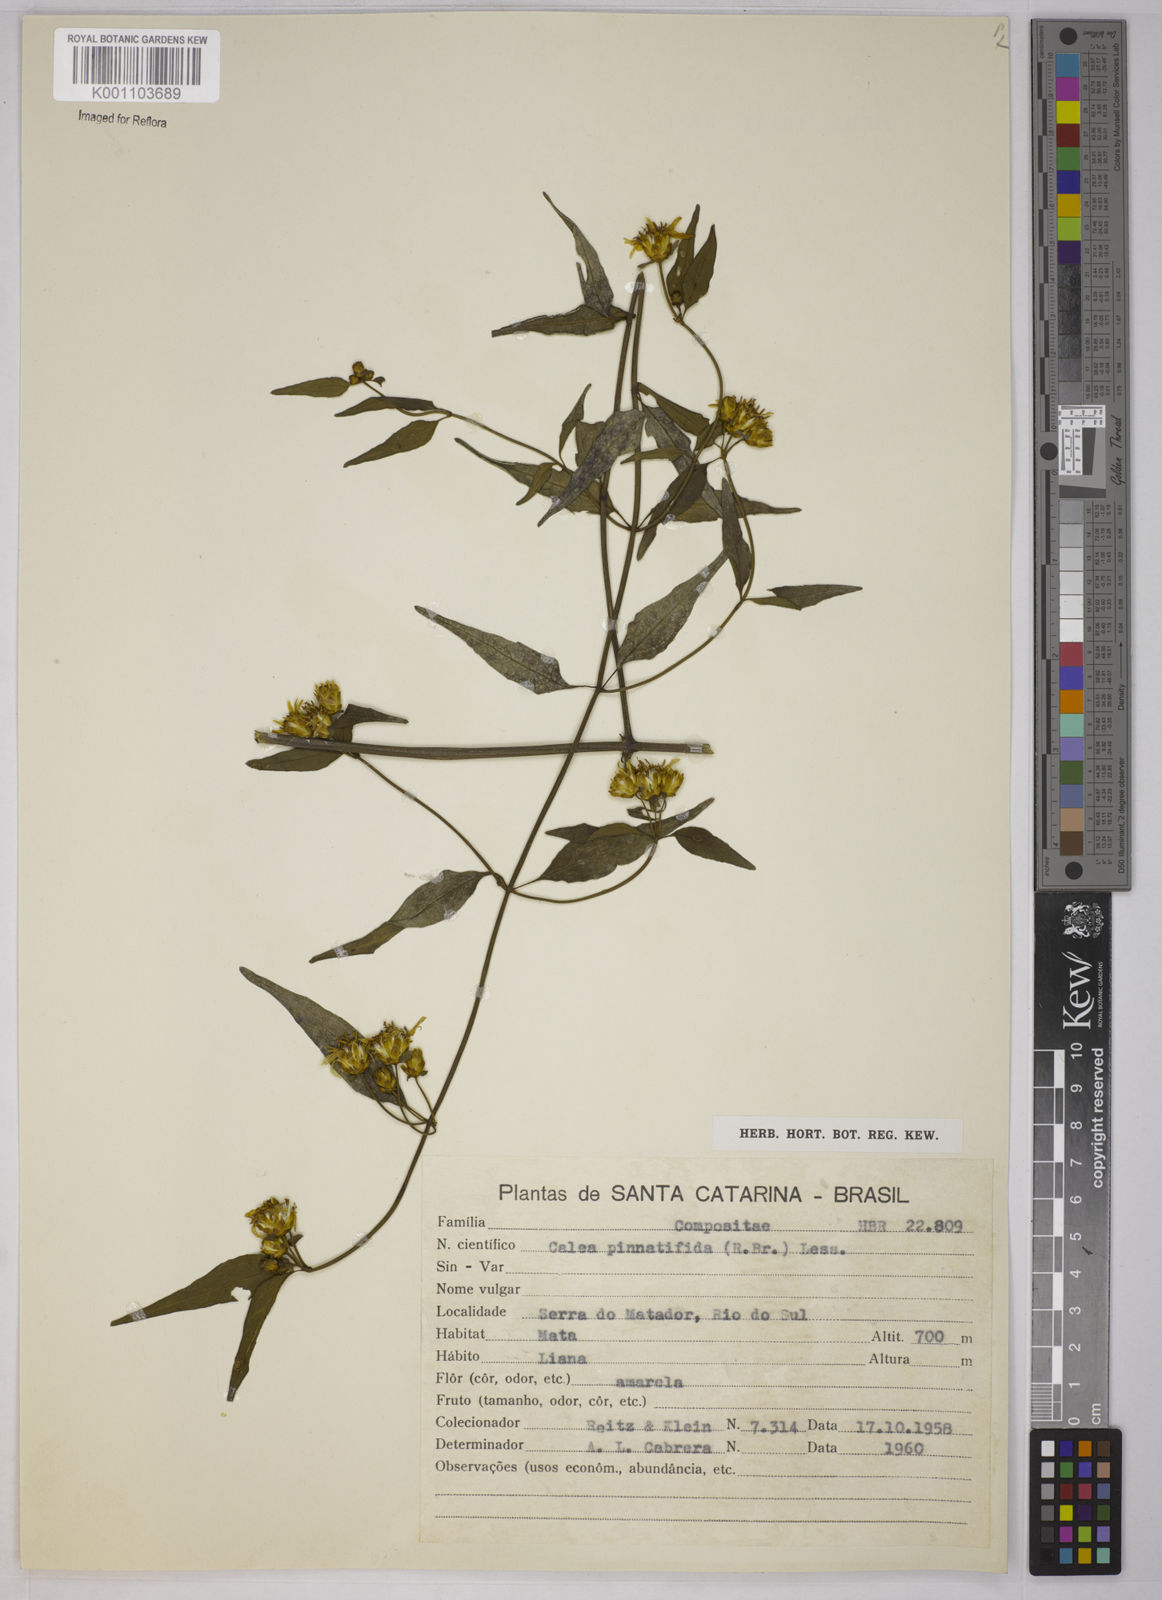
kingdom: Plantae
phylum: Tracheophyta
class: Magnoliopsida
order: Asterales
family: Asteraceae
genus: Calea
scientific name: Calea
